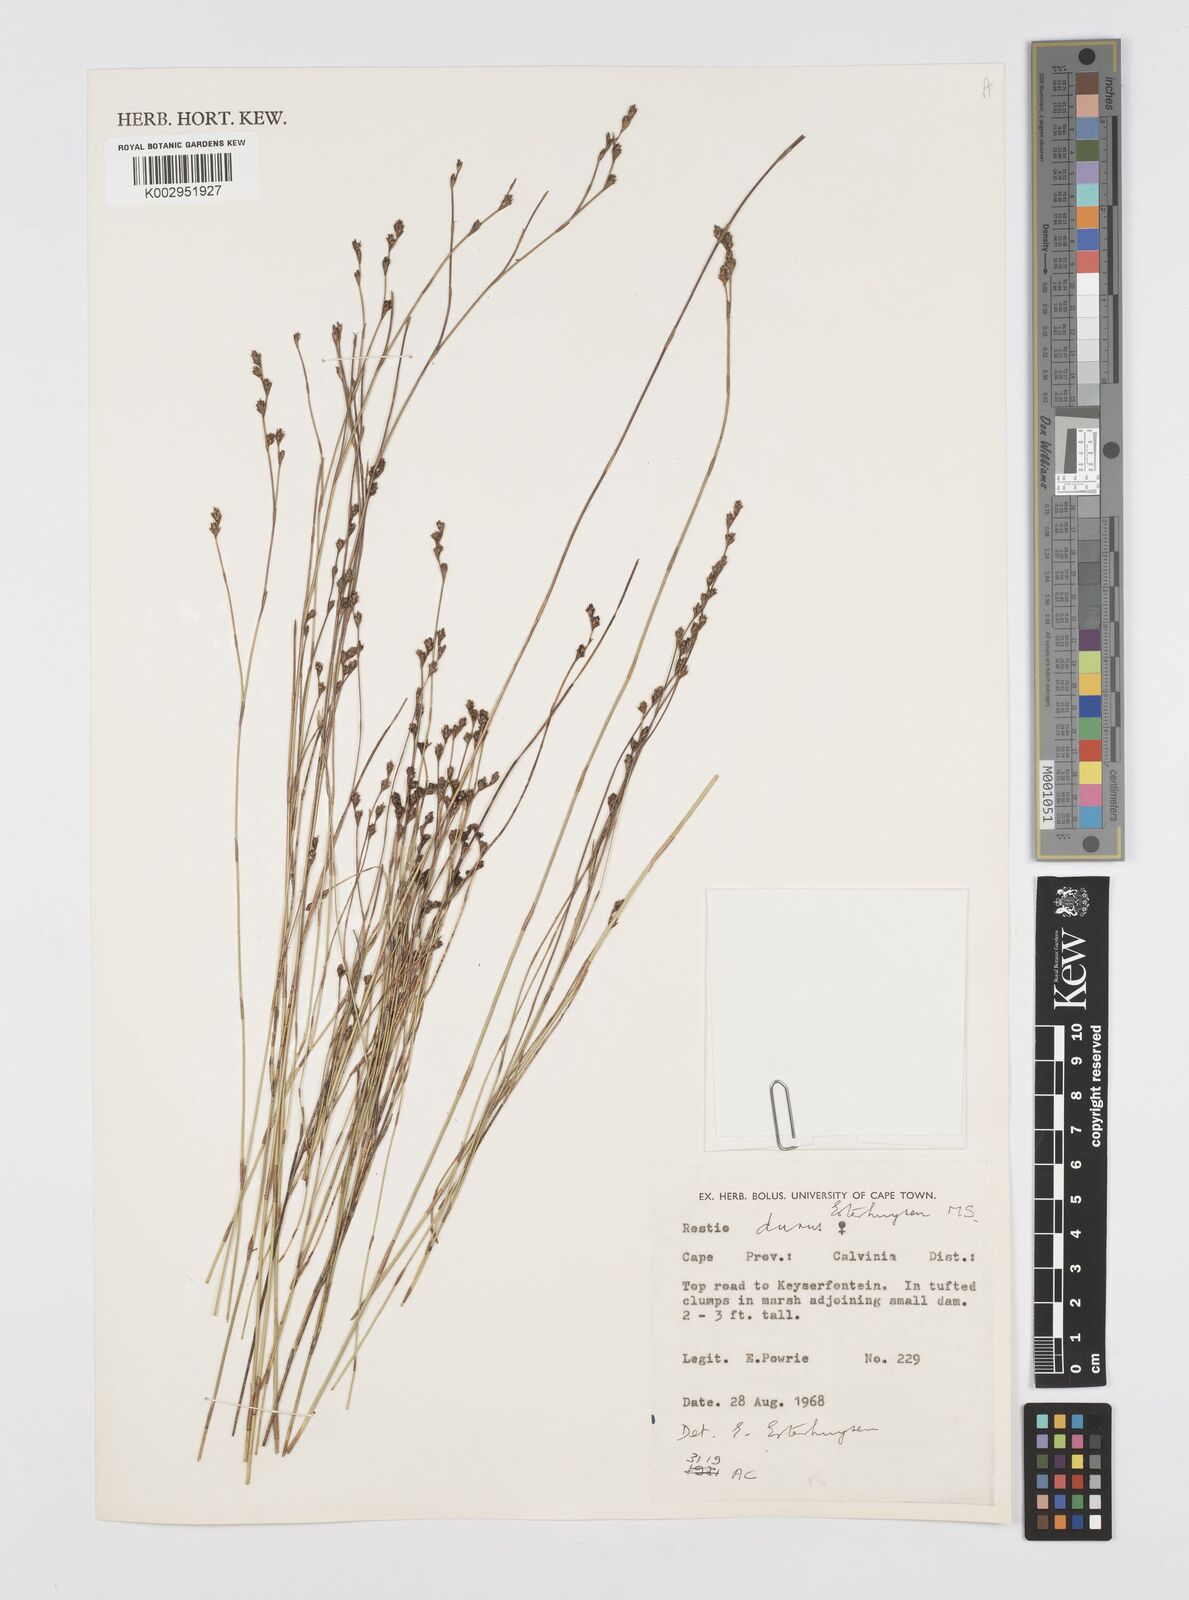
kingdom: Plantae
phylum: Tracheophyta
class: Liliopsida
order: Poales
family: Restionaceae
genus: Restio
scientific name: Restio durus
